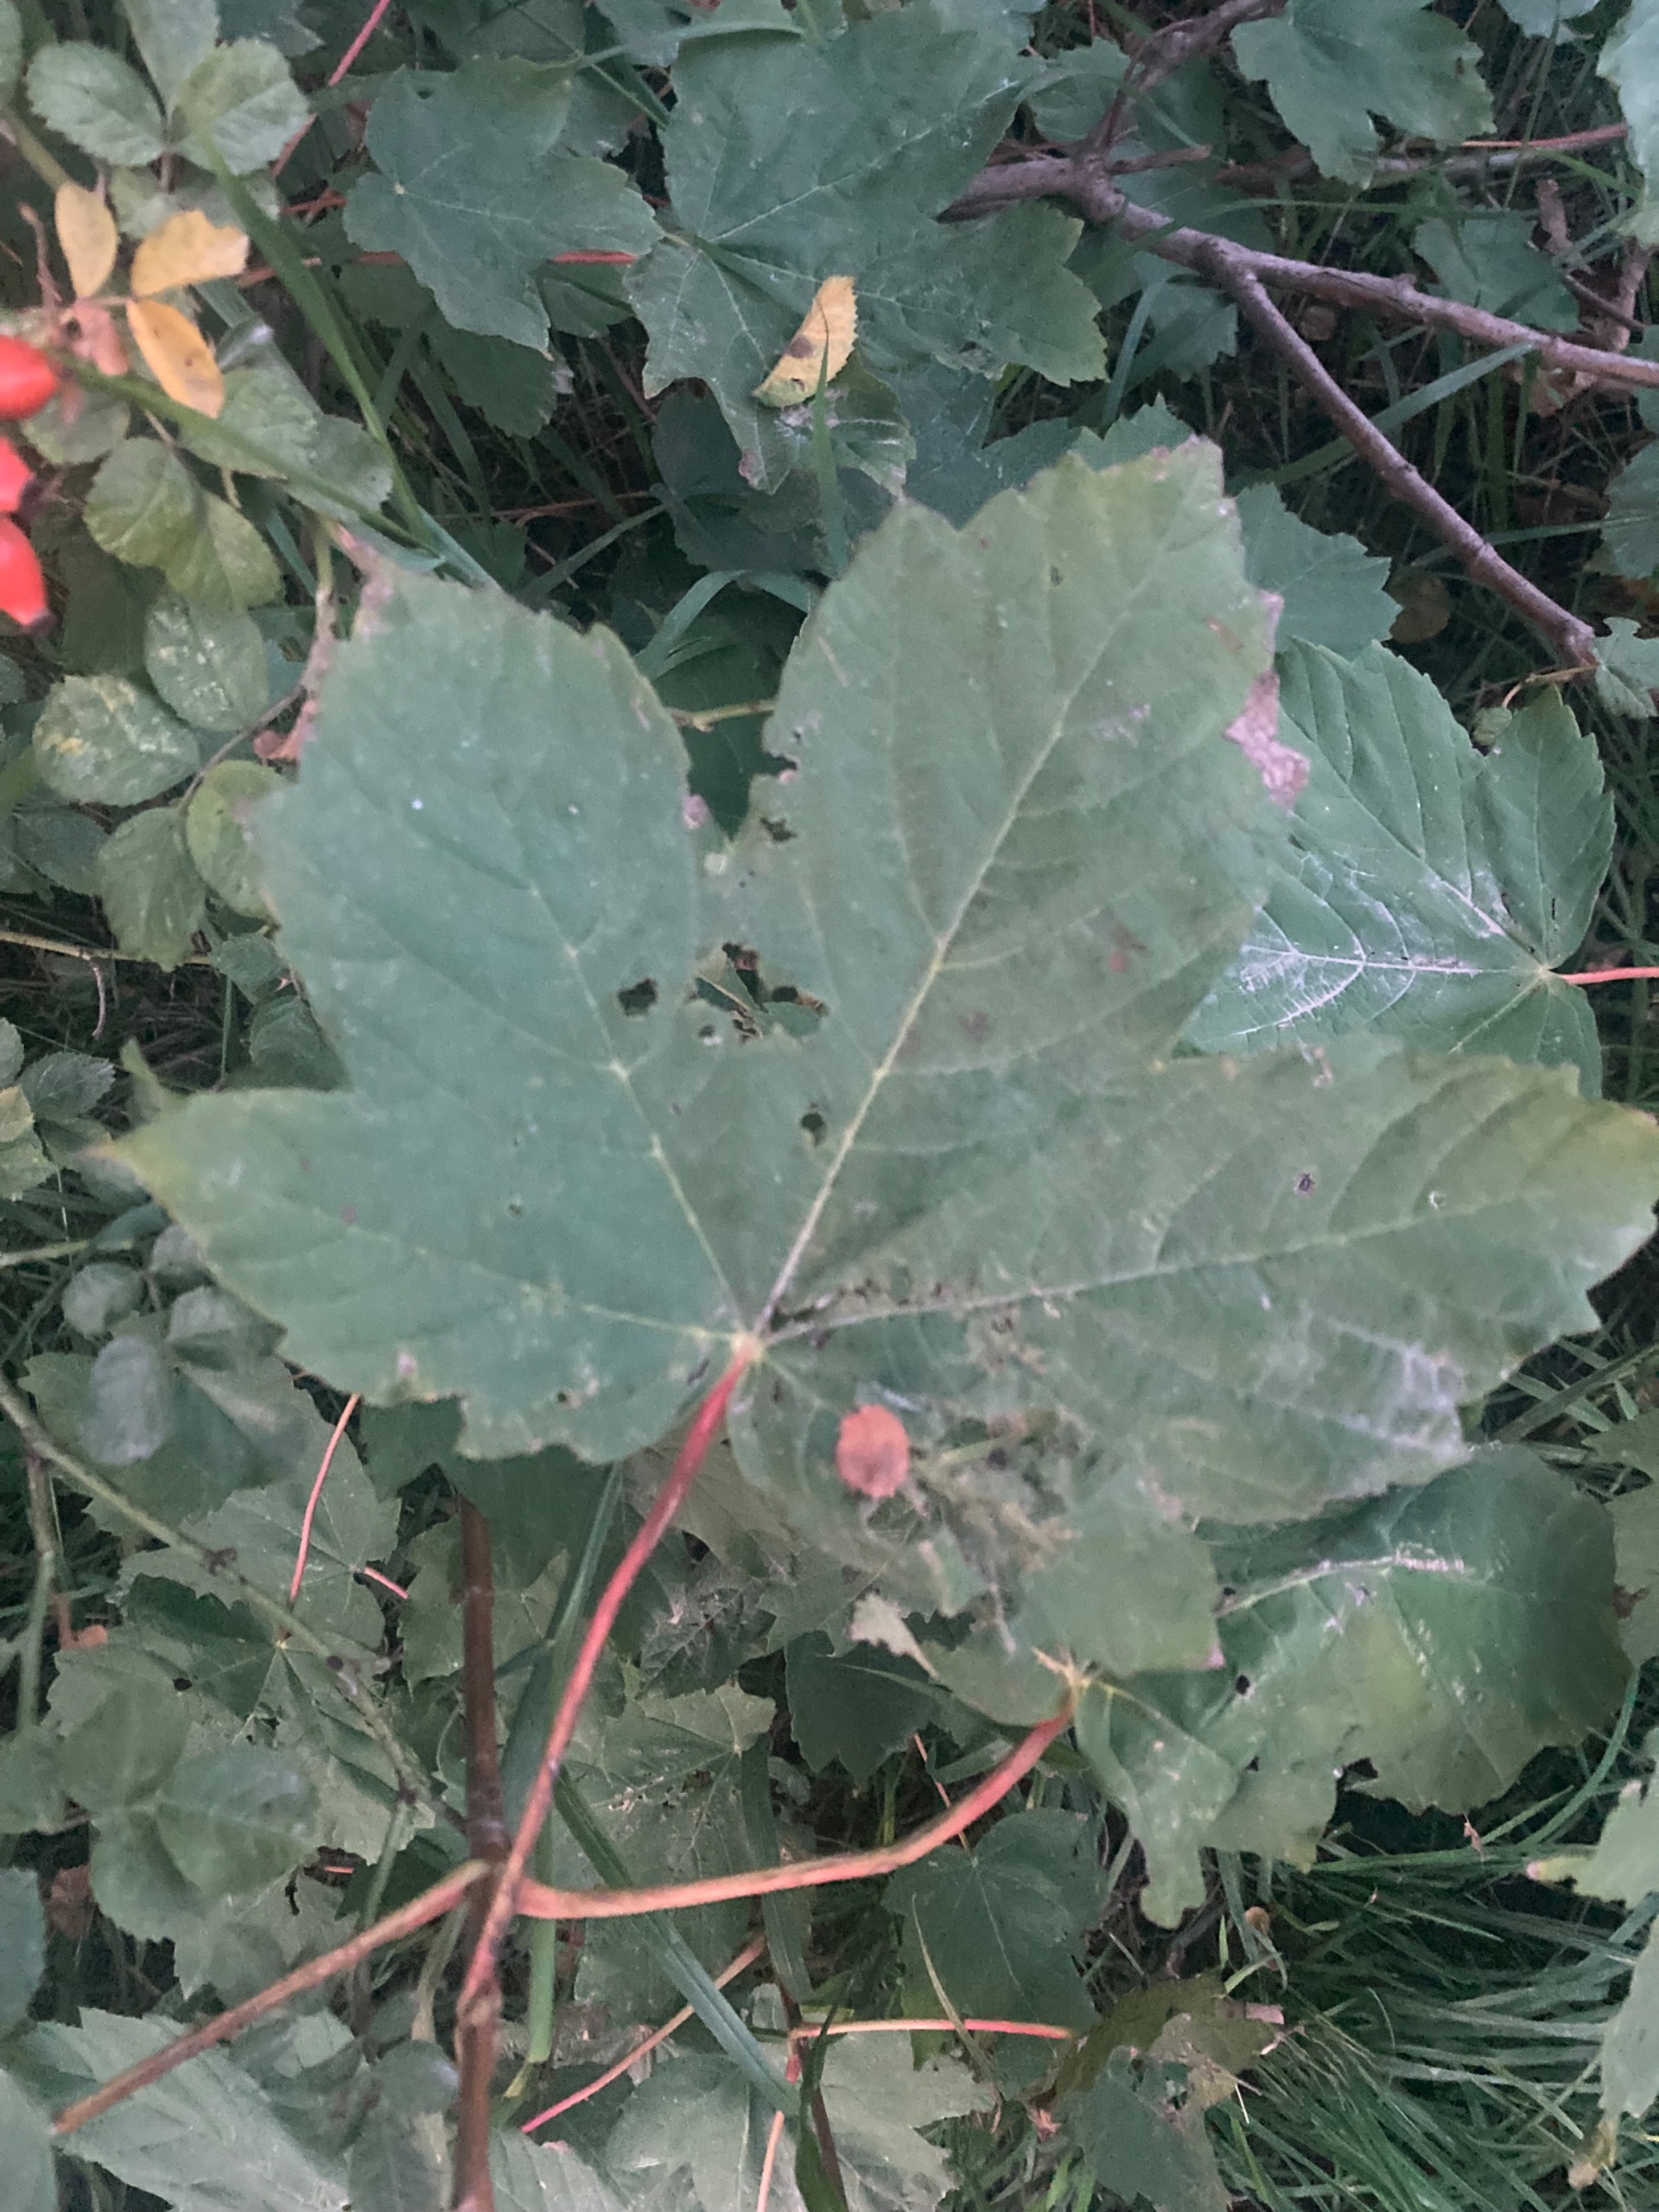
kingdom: Plantae
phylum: Tracheophyta
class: Magnoliopsida
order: Sapindales
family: Sapindaceae
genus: Acer
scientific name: Acer pseudoplatanus
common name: Ahorn
